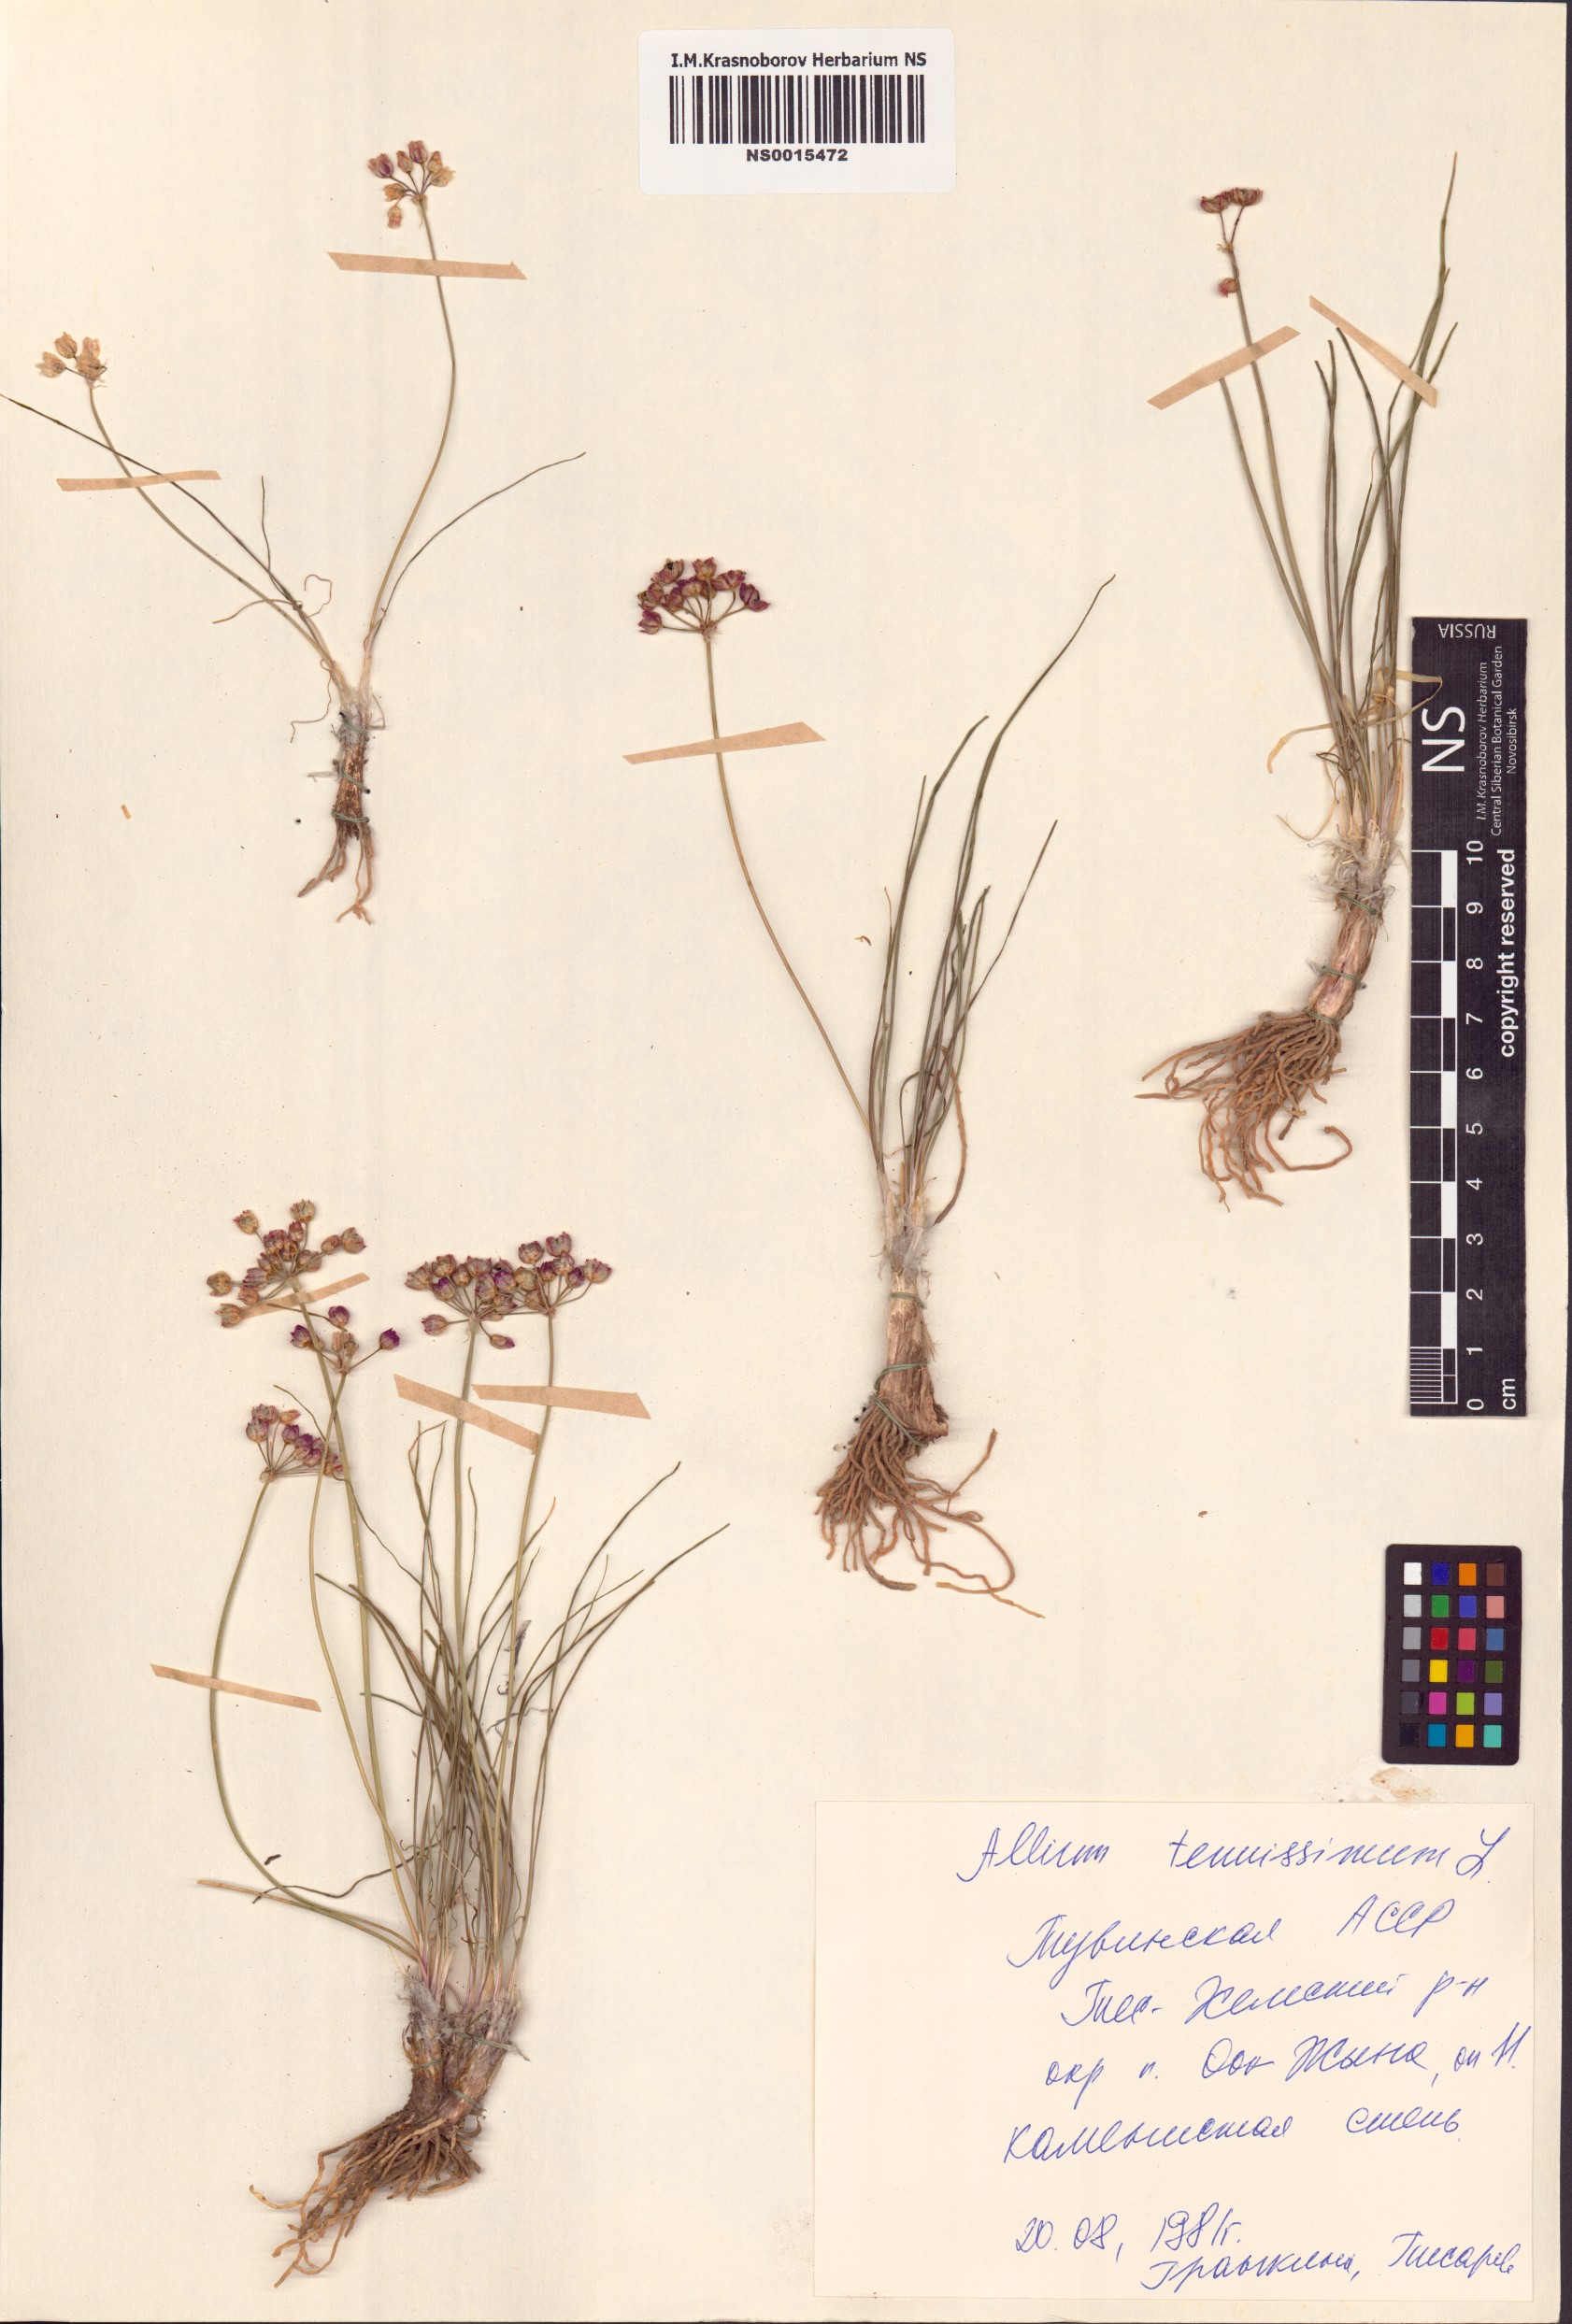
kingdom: Plantae
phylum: Tracheophyta
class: Liliopsida
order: Asparagales
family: Amaryllidaceae
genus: Allium
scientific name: Allium tenuissimum
